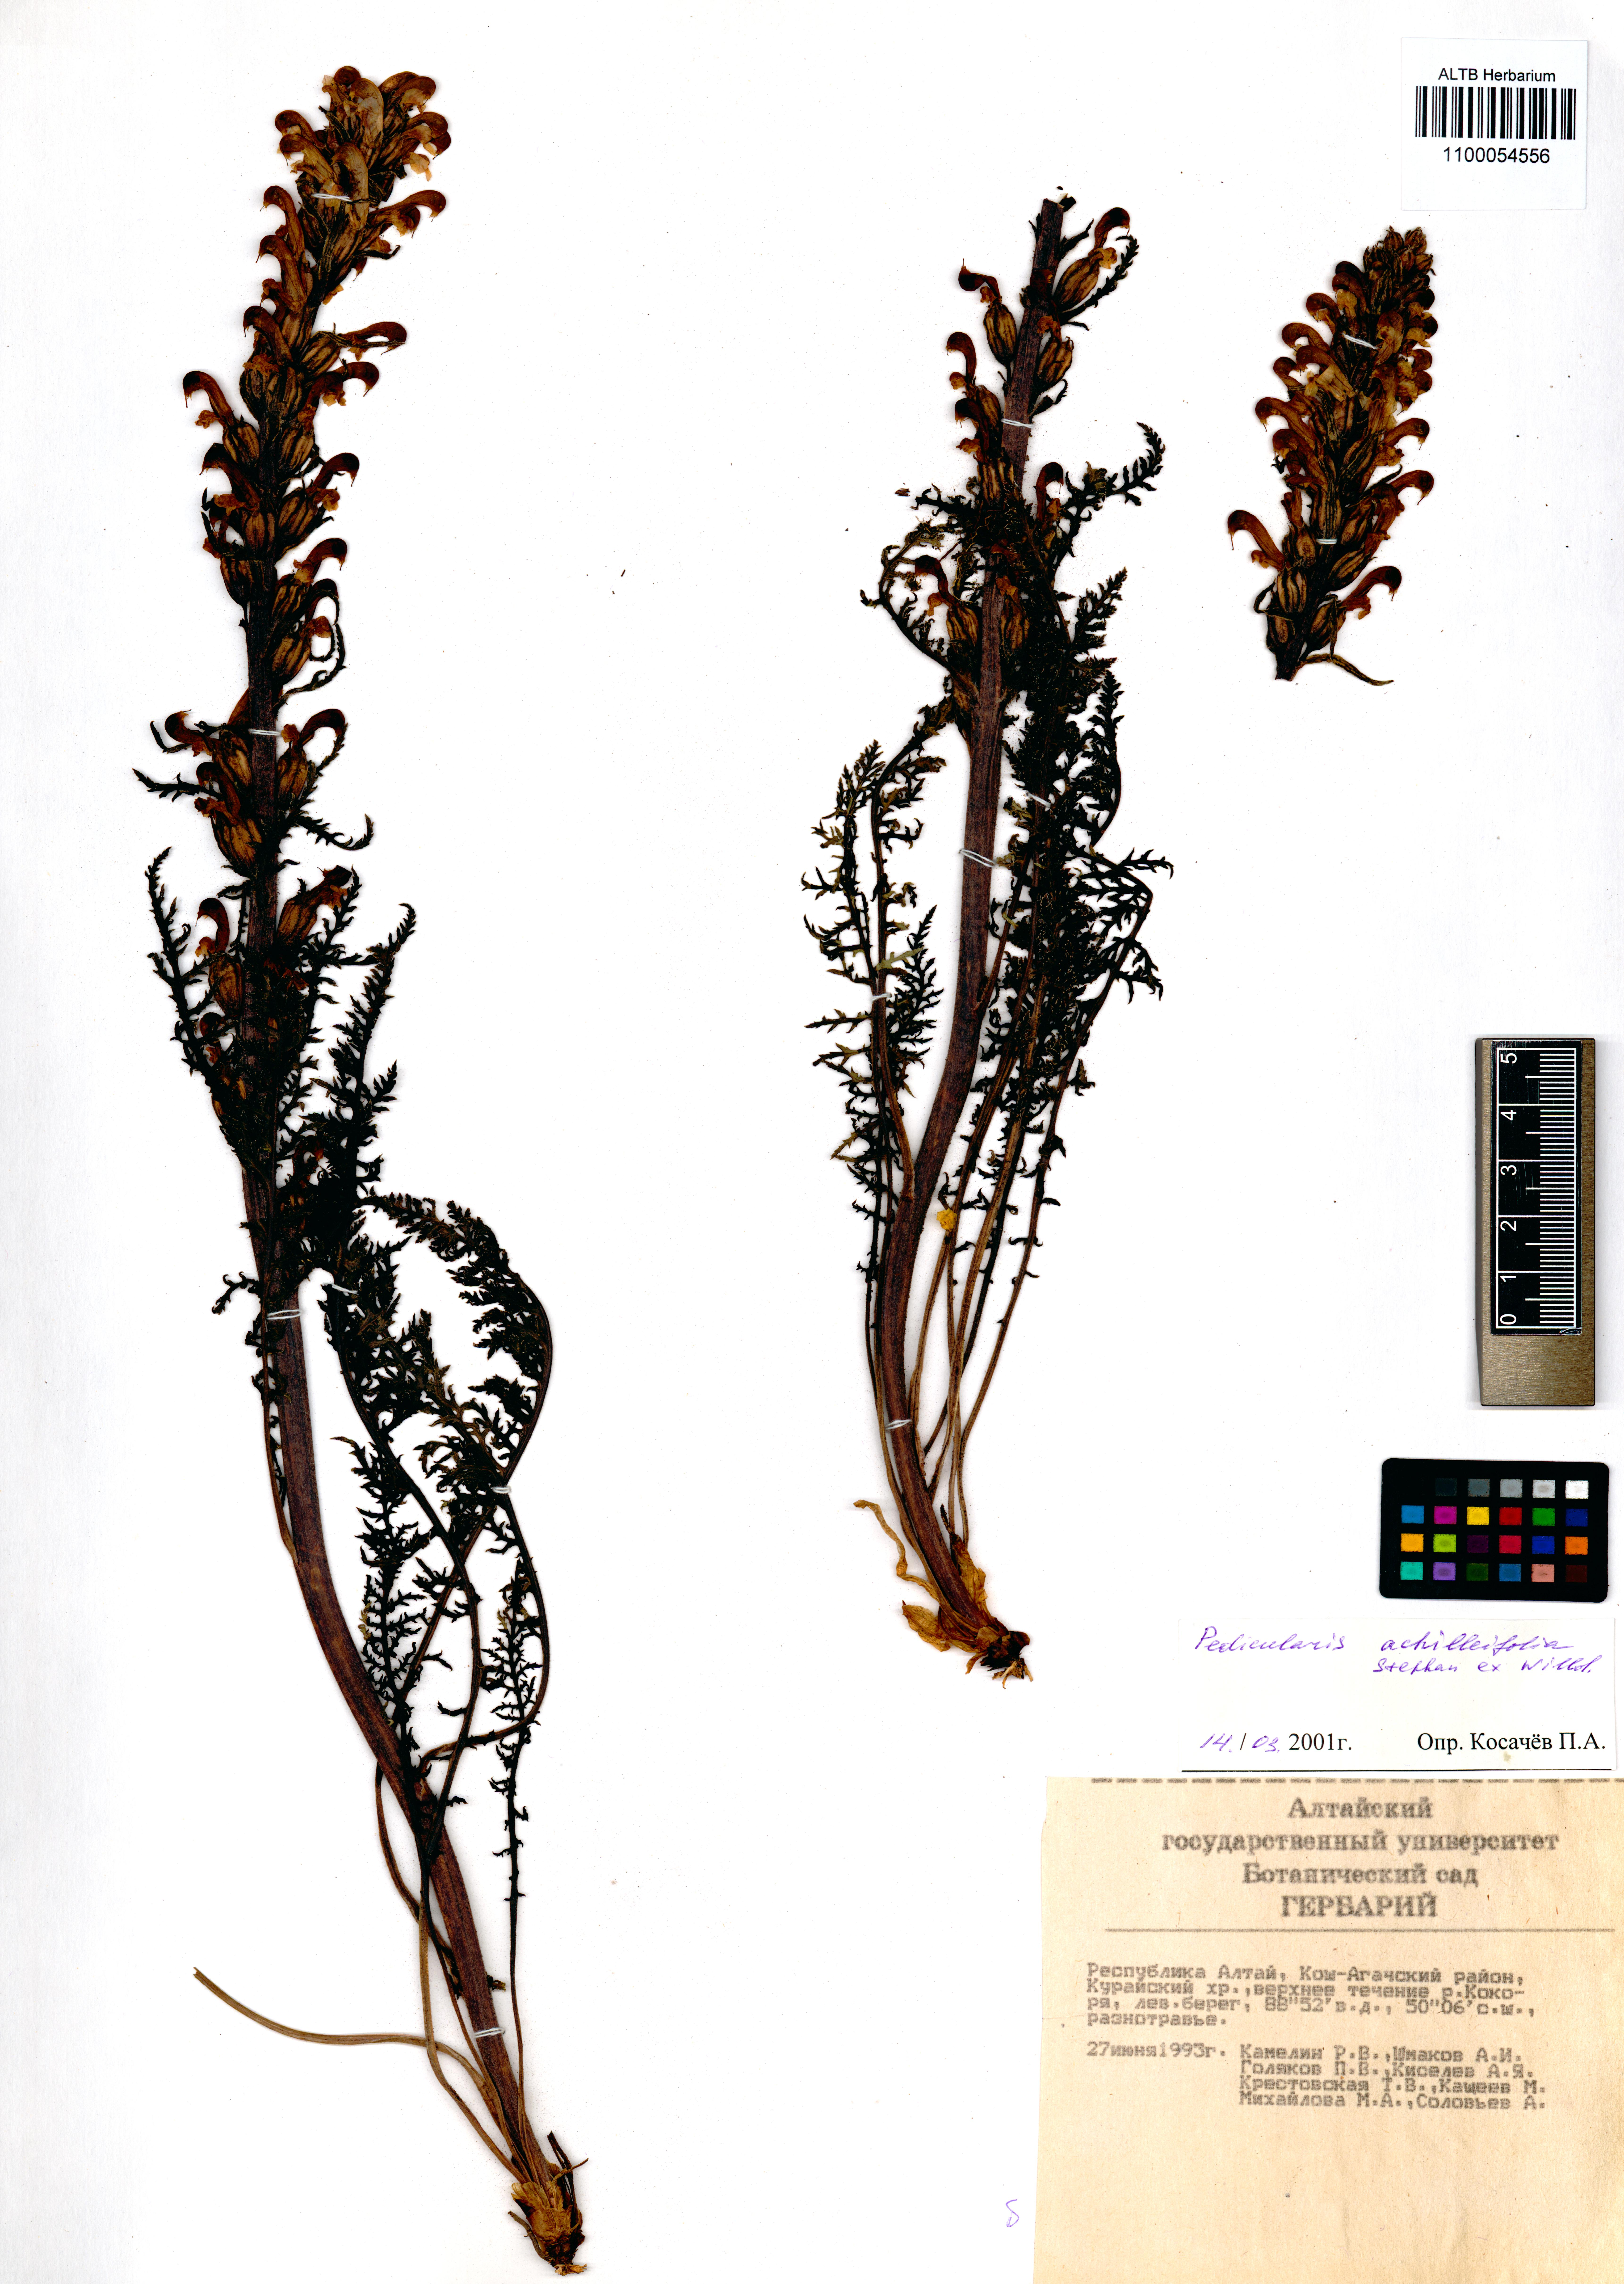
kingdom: Plantae
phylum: Tracheophyta
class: Magnoliopsida
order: Lamiales
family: Orobanchaceae
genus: Pedicularis
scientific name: Pedicularis achilleifolia
